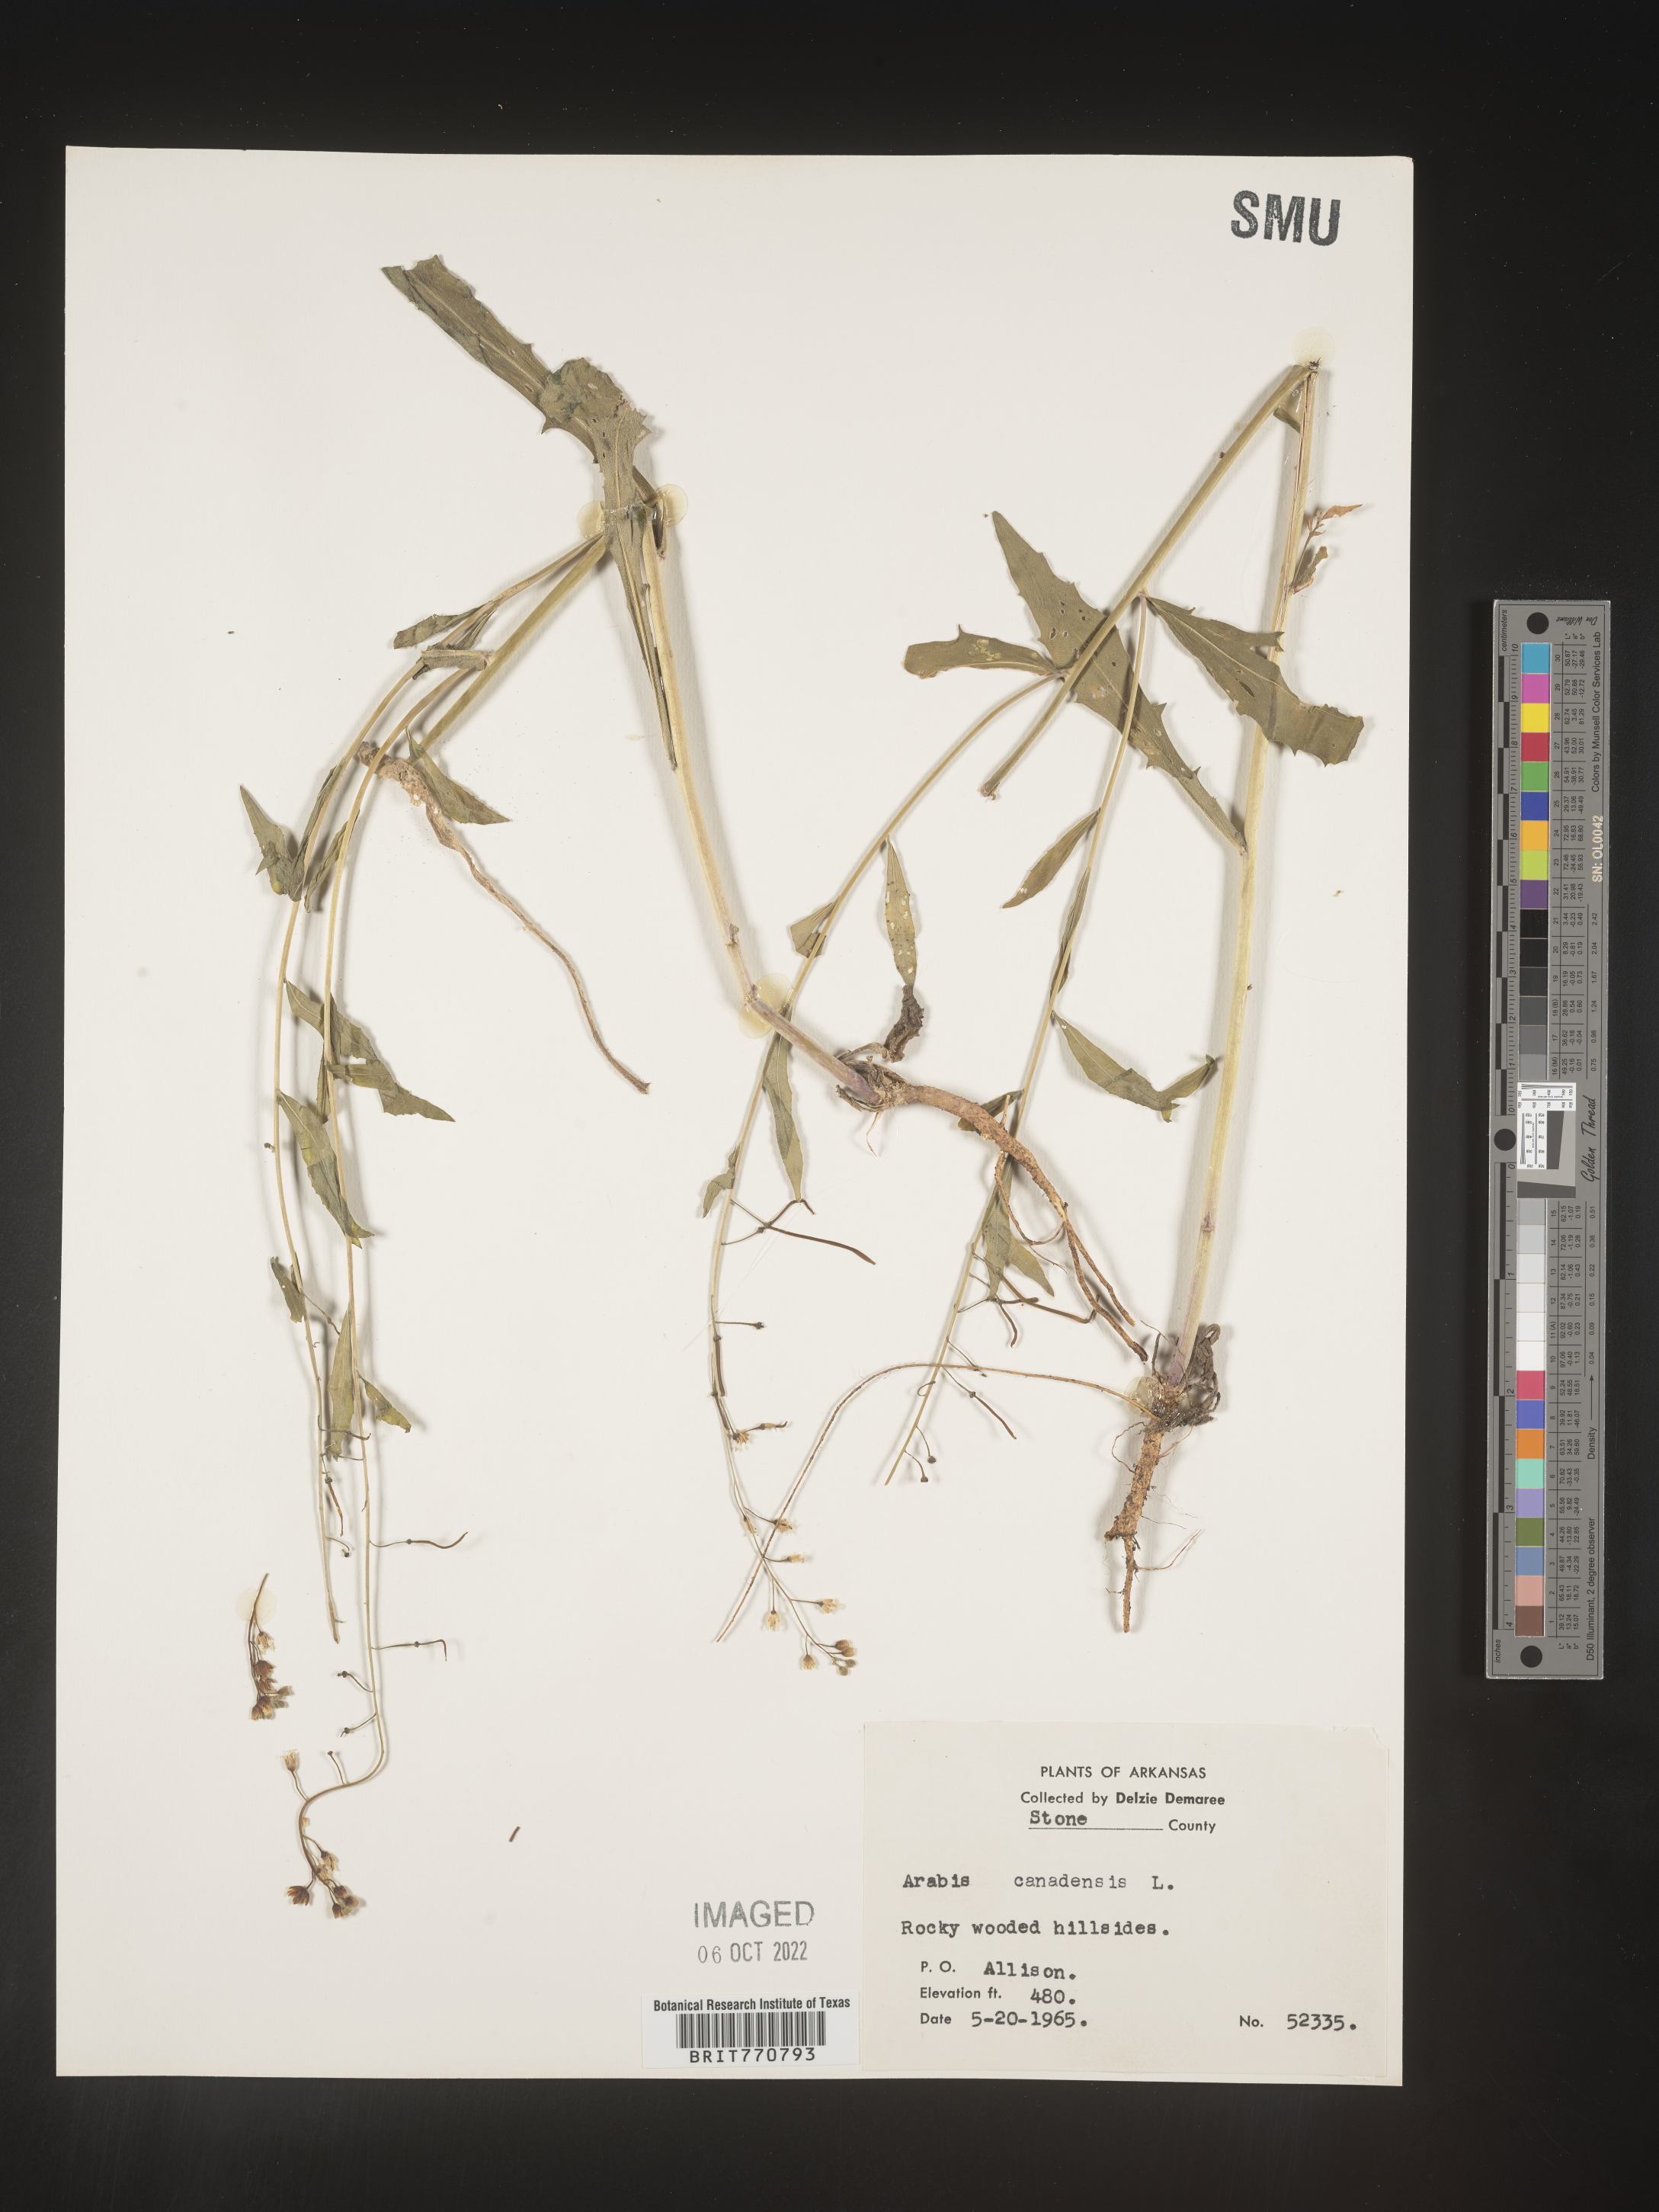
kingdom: Plantae
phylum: Tracheophyta
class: Magnoliopsida
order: Brassicales
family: Brassicaceae
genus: Borodinia
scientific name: Borodinia canadensis
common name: Sicklepod
